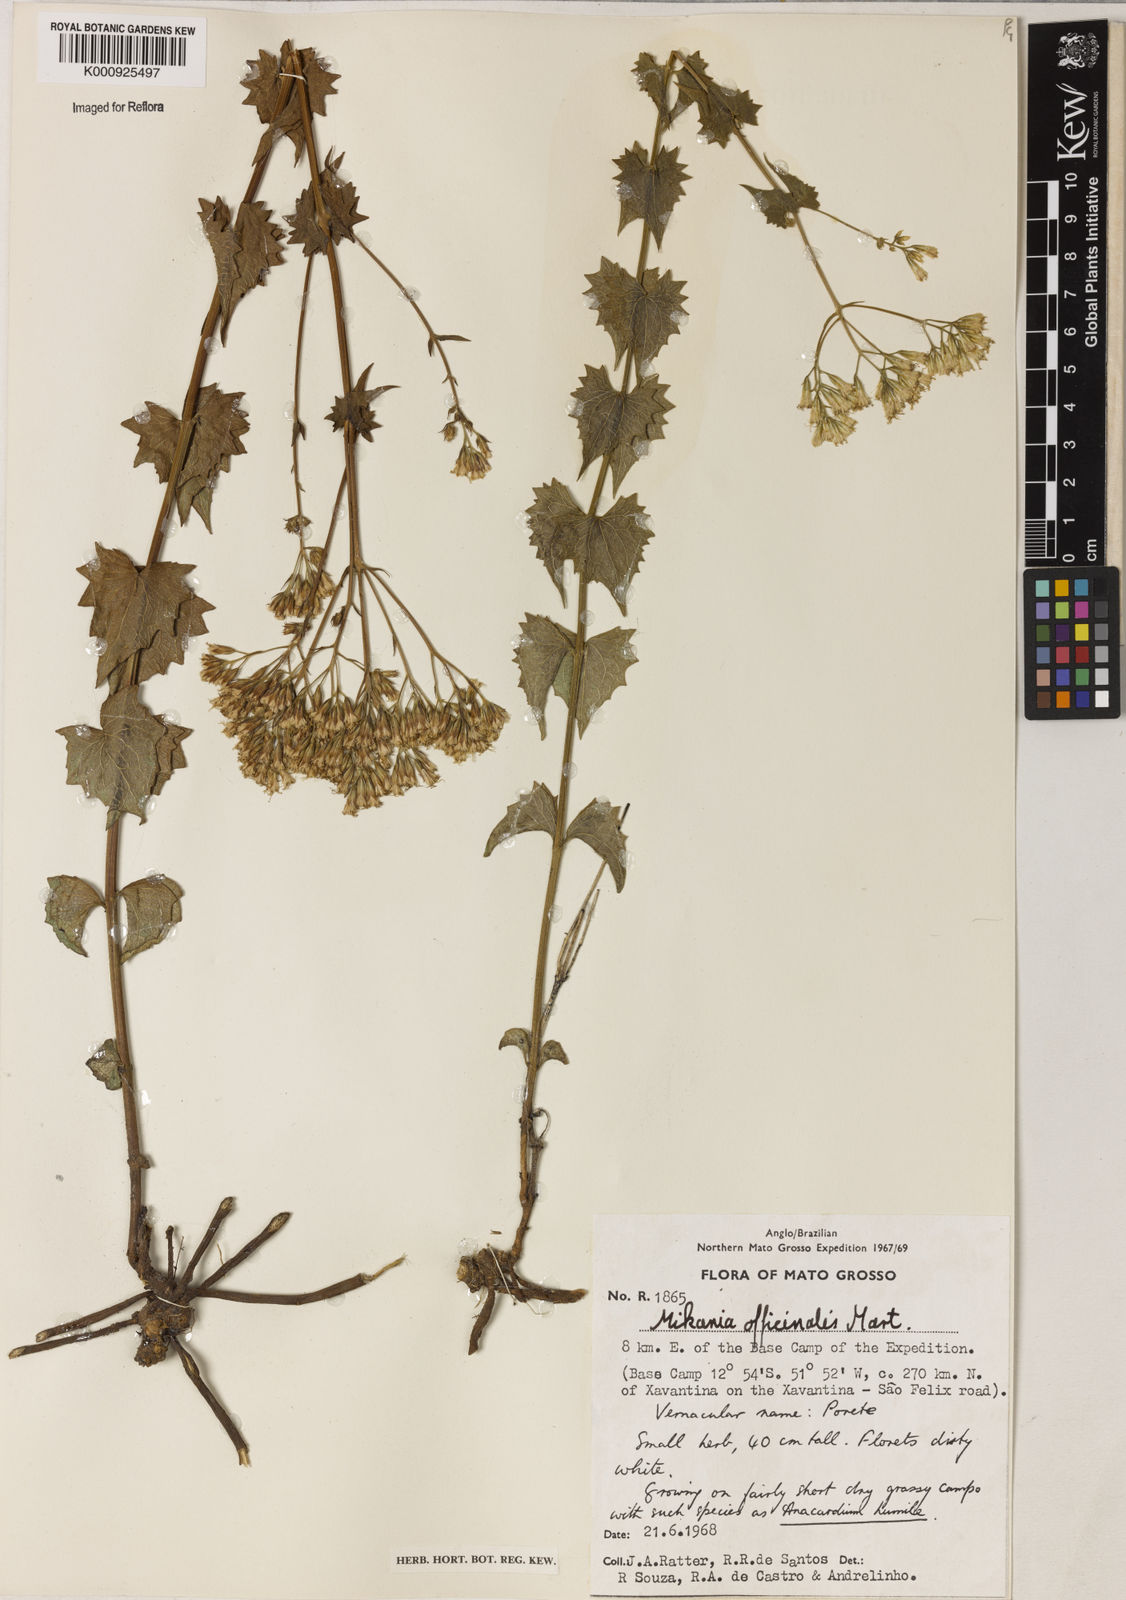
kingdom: Plantae
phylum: Tracheophyta
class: Magnoliopsida
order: Asterales
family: Asteraceae
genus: Mikania
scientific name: Mikania officinalis
